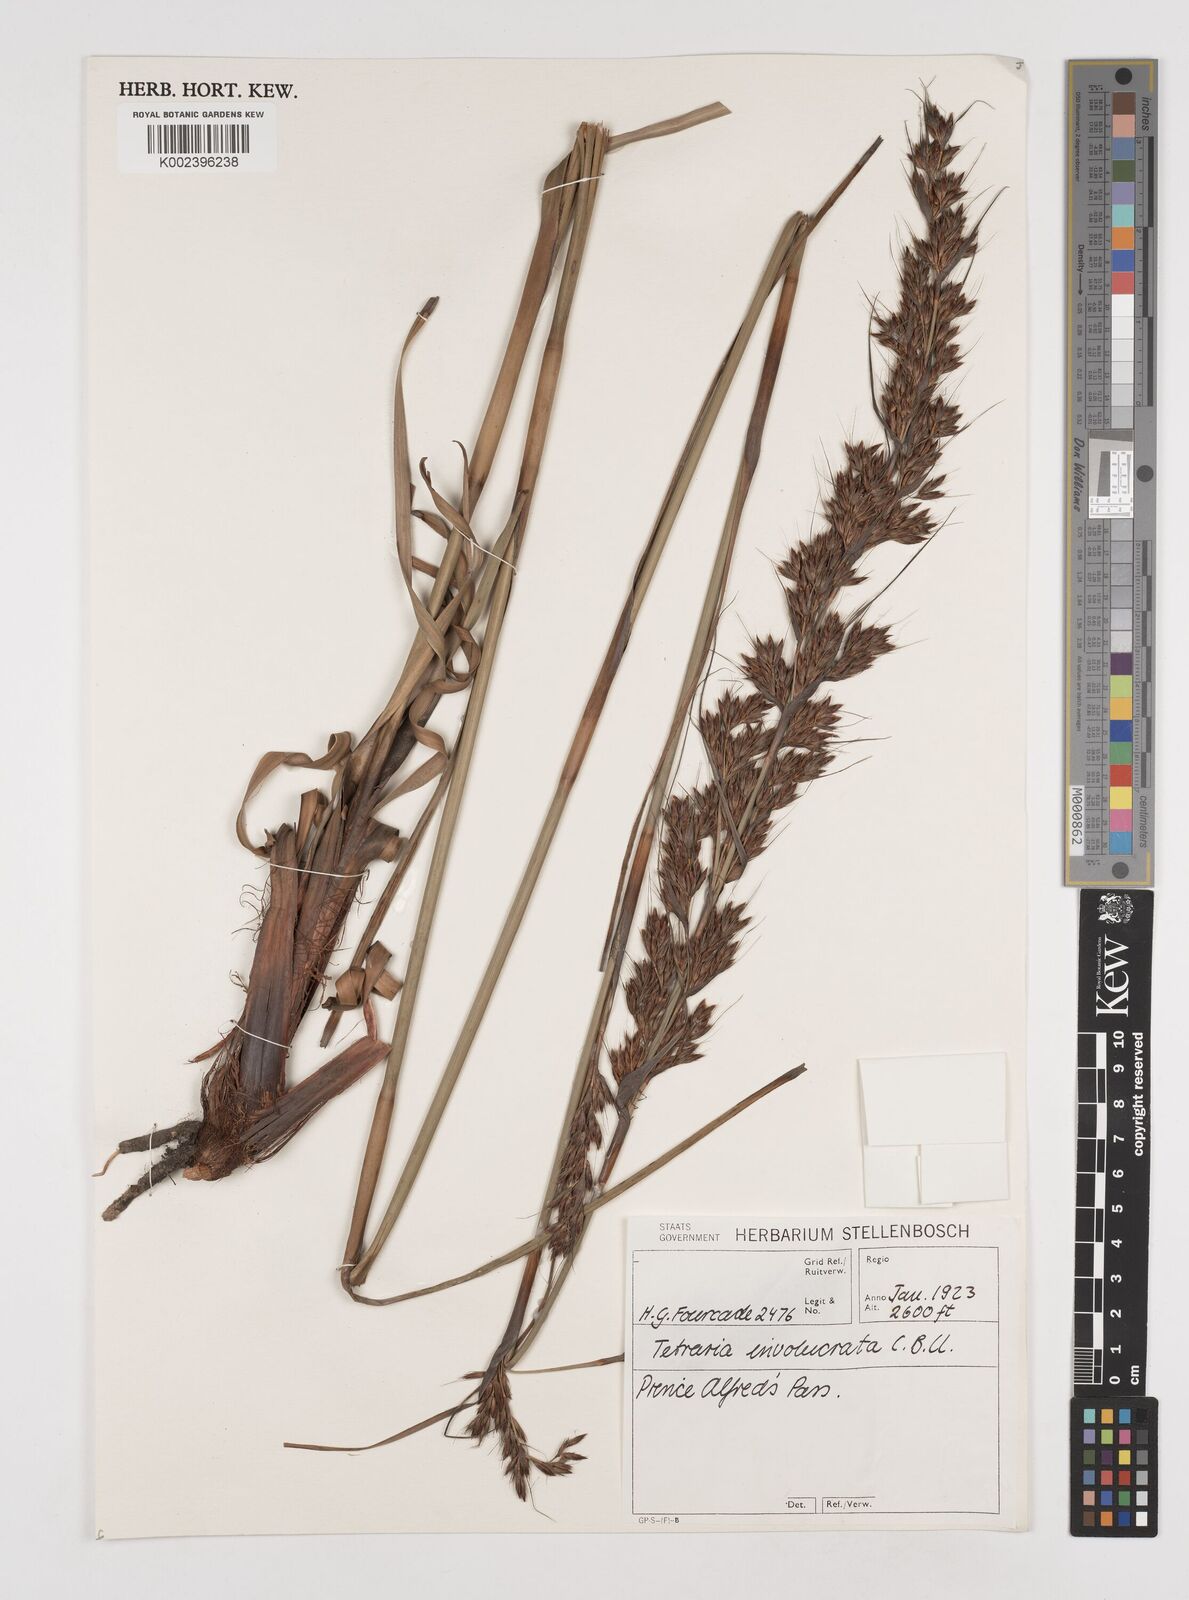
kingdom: Plantae
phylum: Tracheophyta
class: Liliopsida
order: Poales
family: Cyperaceae
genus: Tetraria
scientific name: Tetraria involucrata
